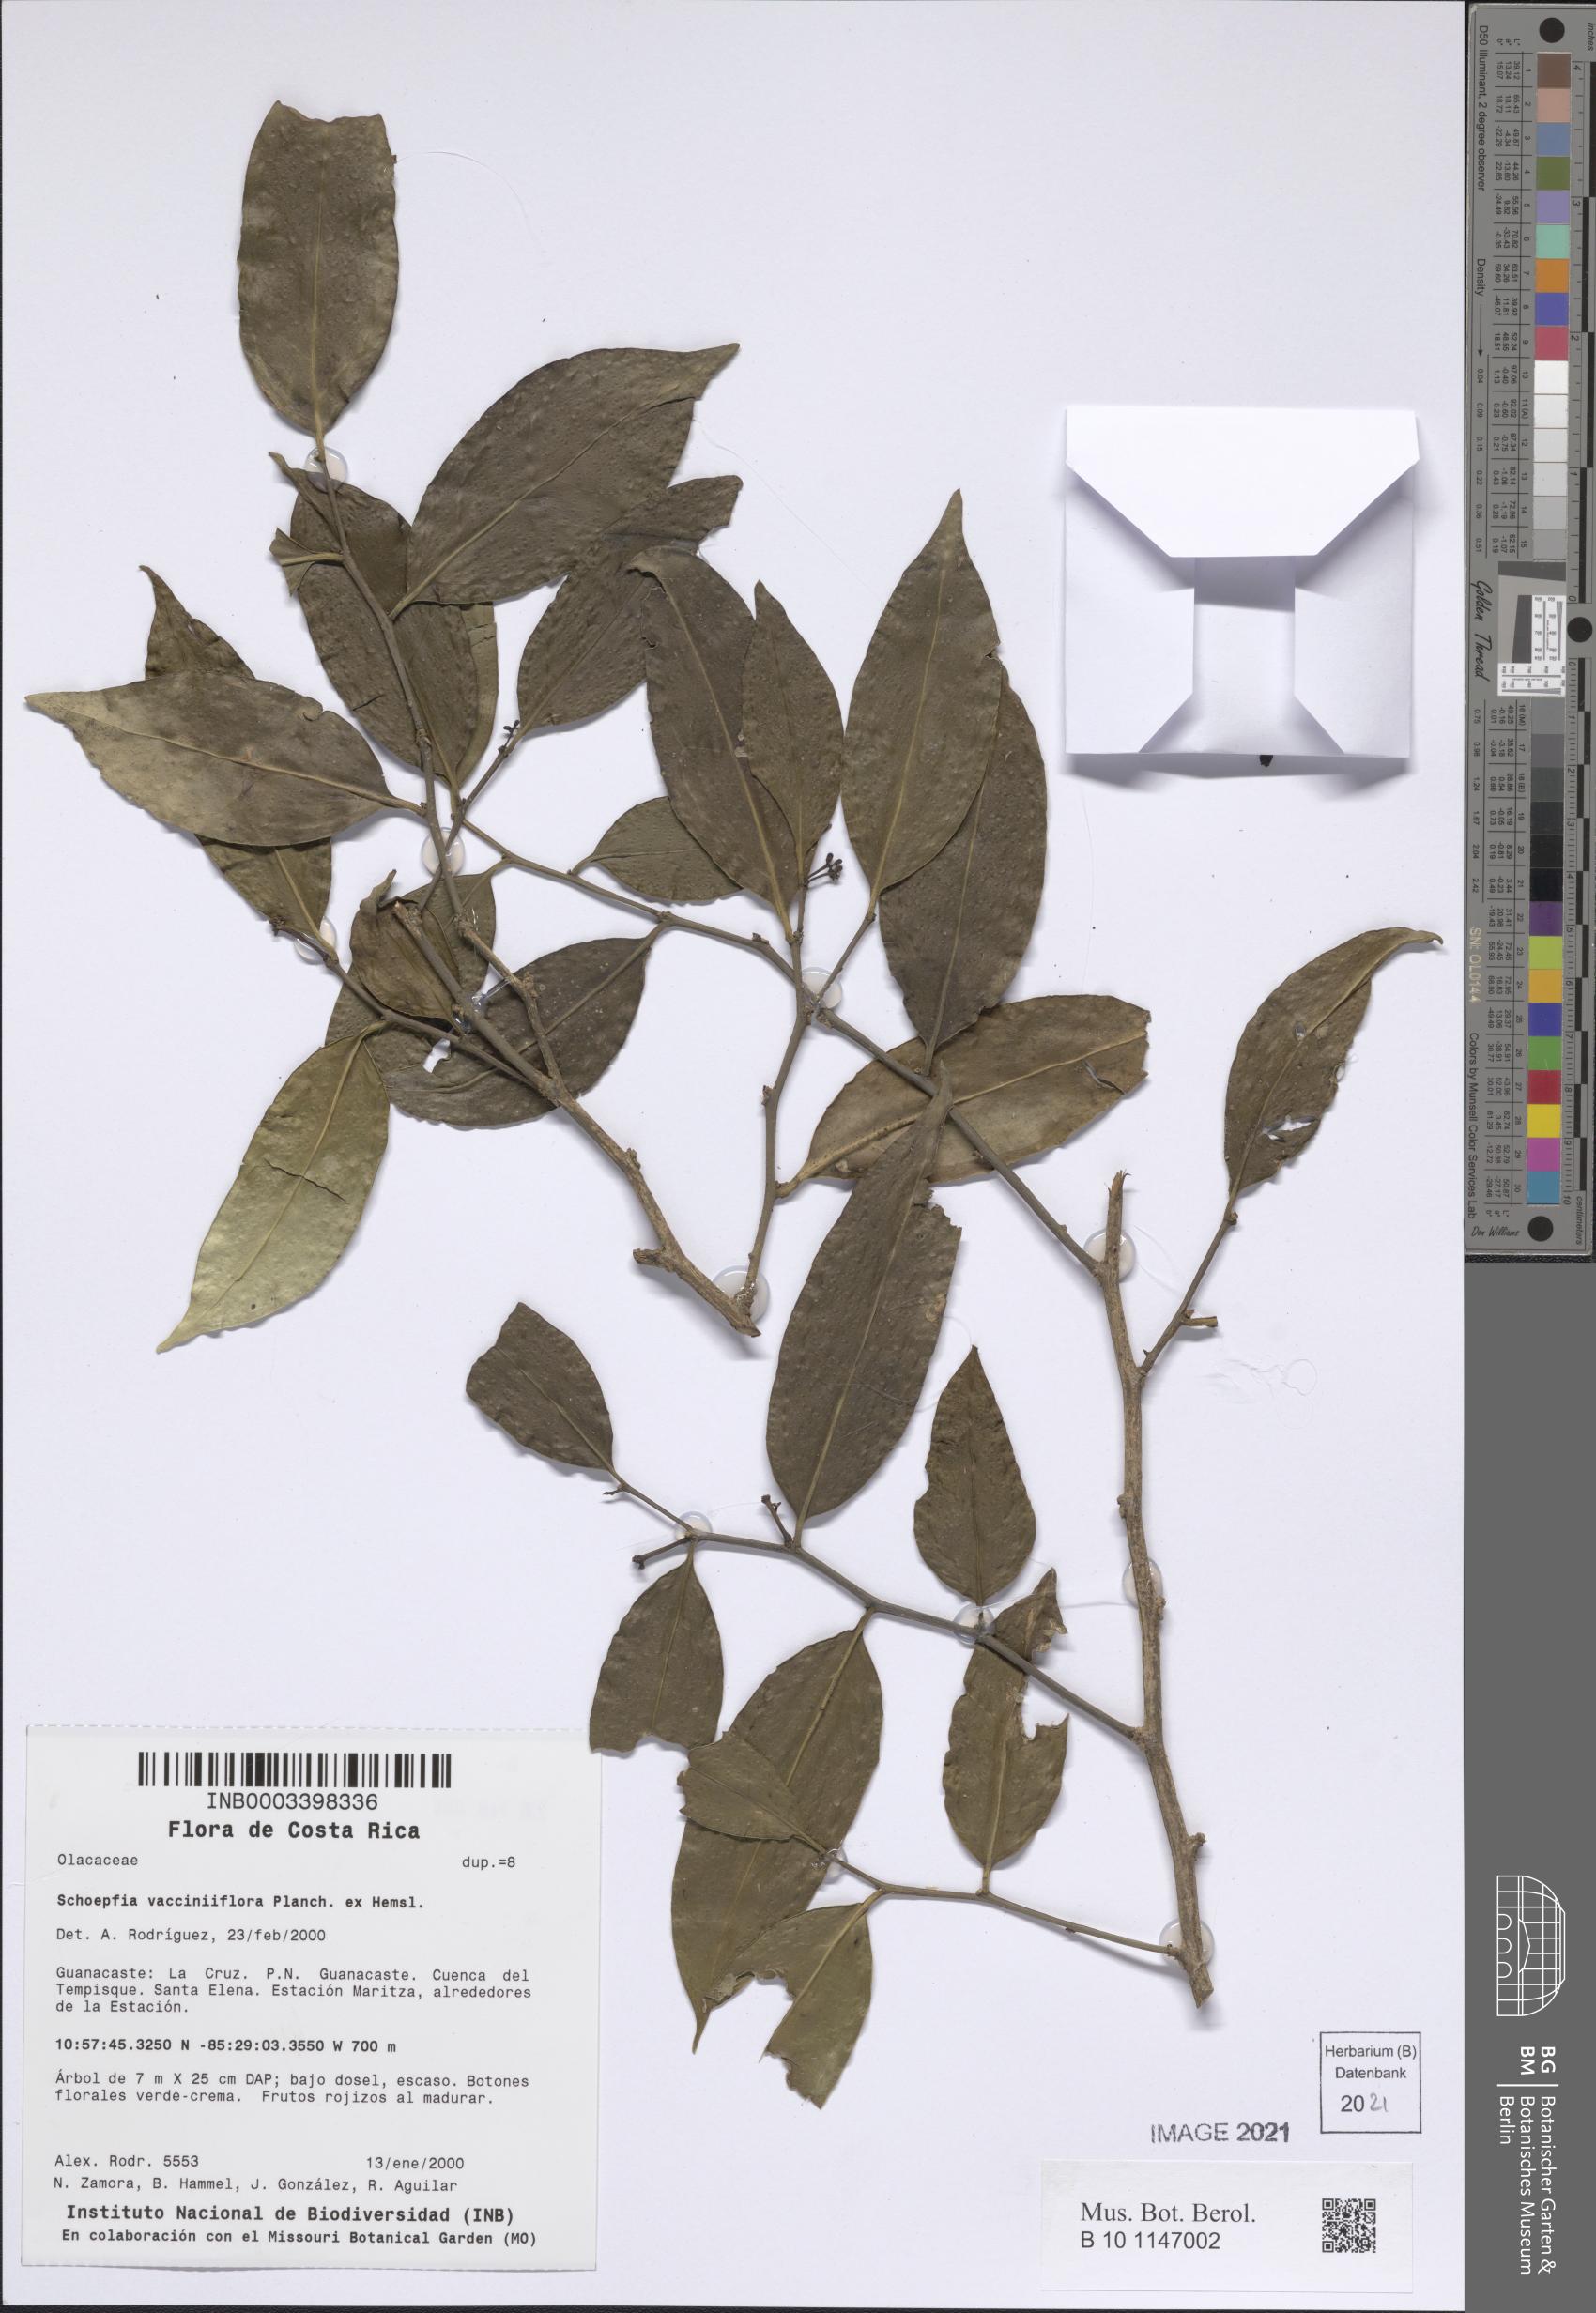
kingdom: Plantae
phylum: Tracheophyta
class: Magnoliopsida
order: Santalales
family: Schoepfiaceae
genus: Schoepfia
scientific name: Schoepfia vacciniiflora
